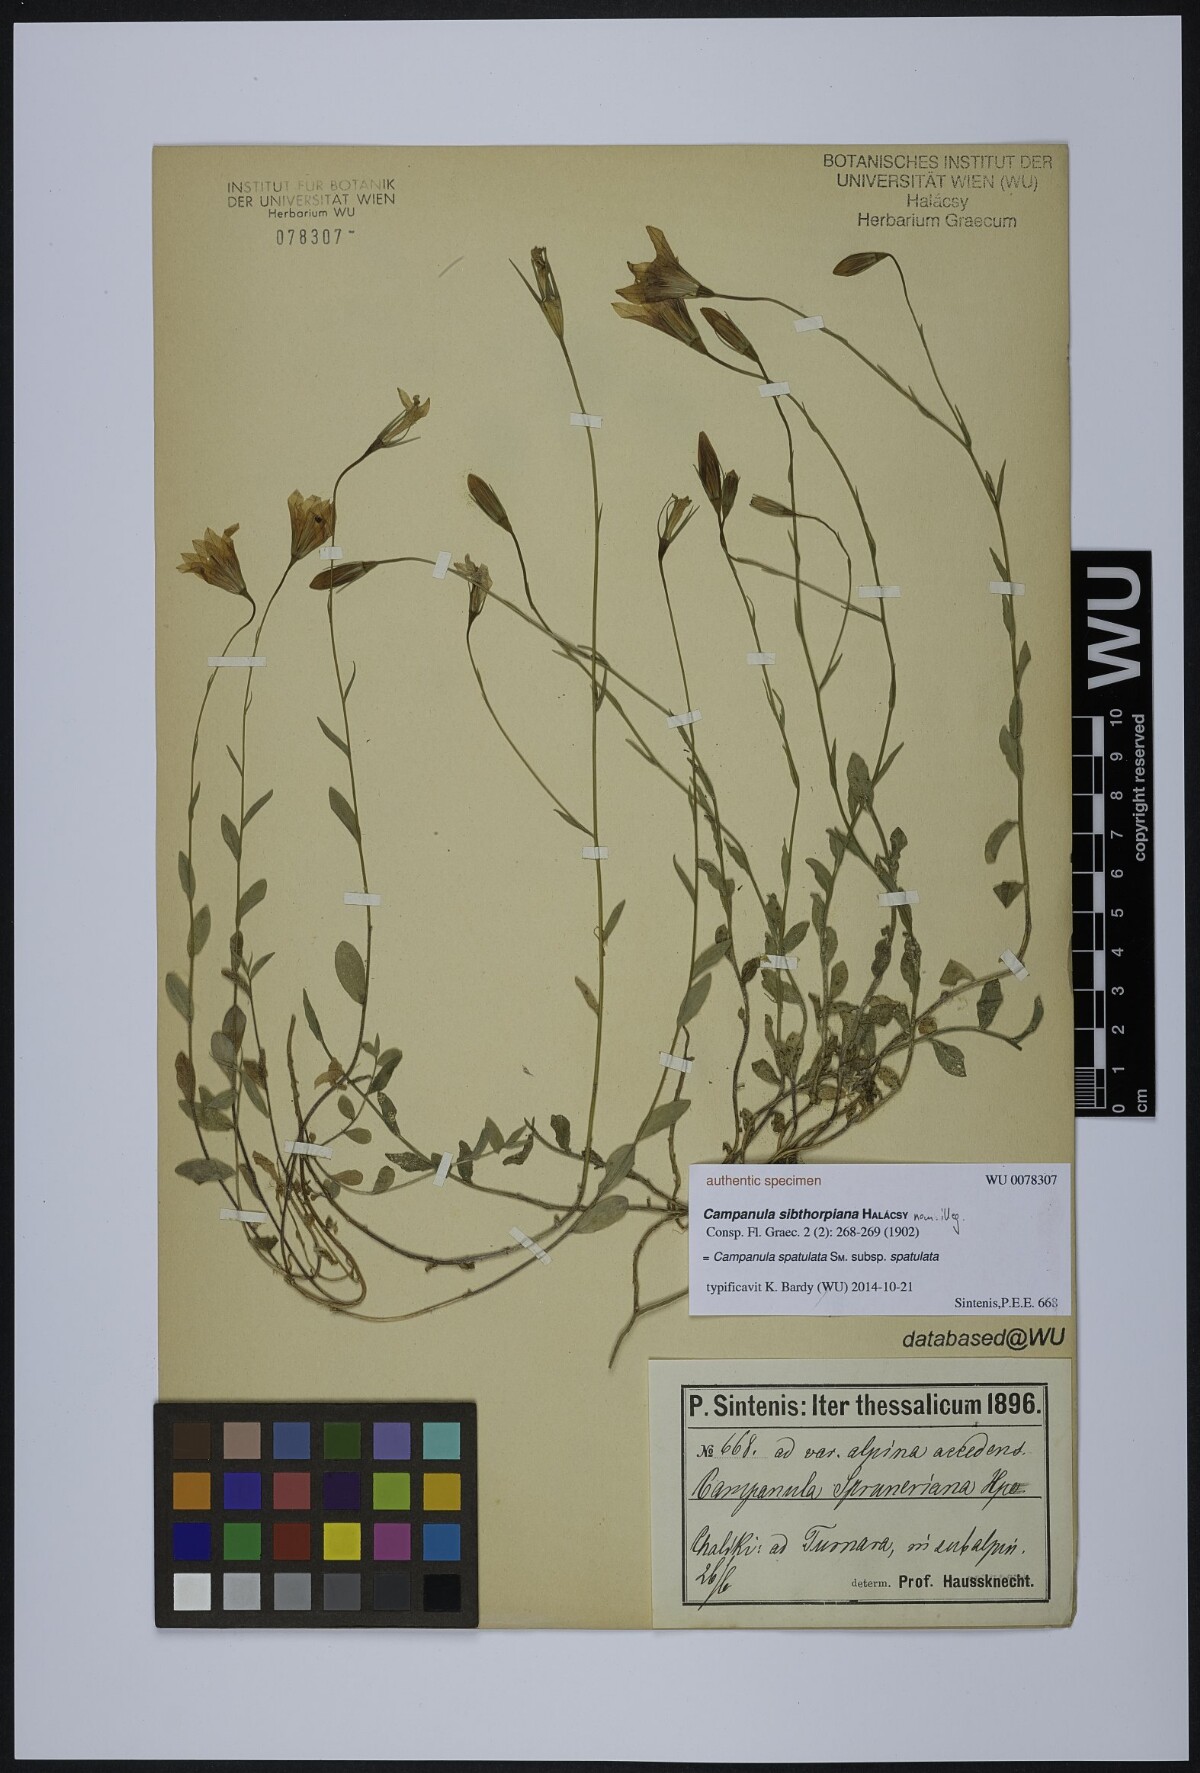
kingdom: Plantae
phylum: Tracheophyta
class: Magnoliopsida
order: Asterales
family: Campanulaceae
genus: Campanula
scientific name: Campanula spatulata
